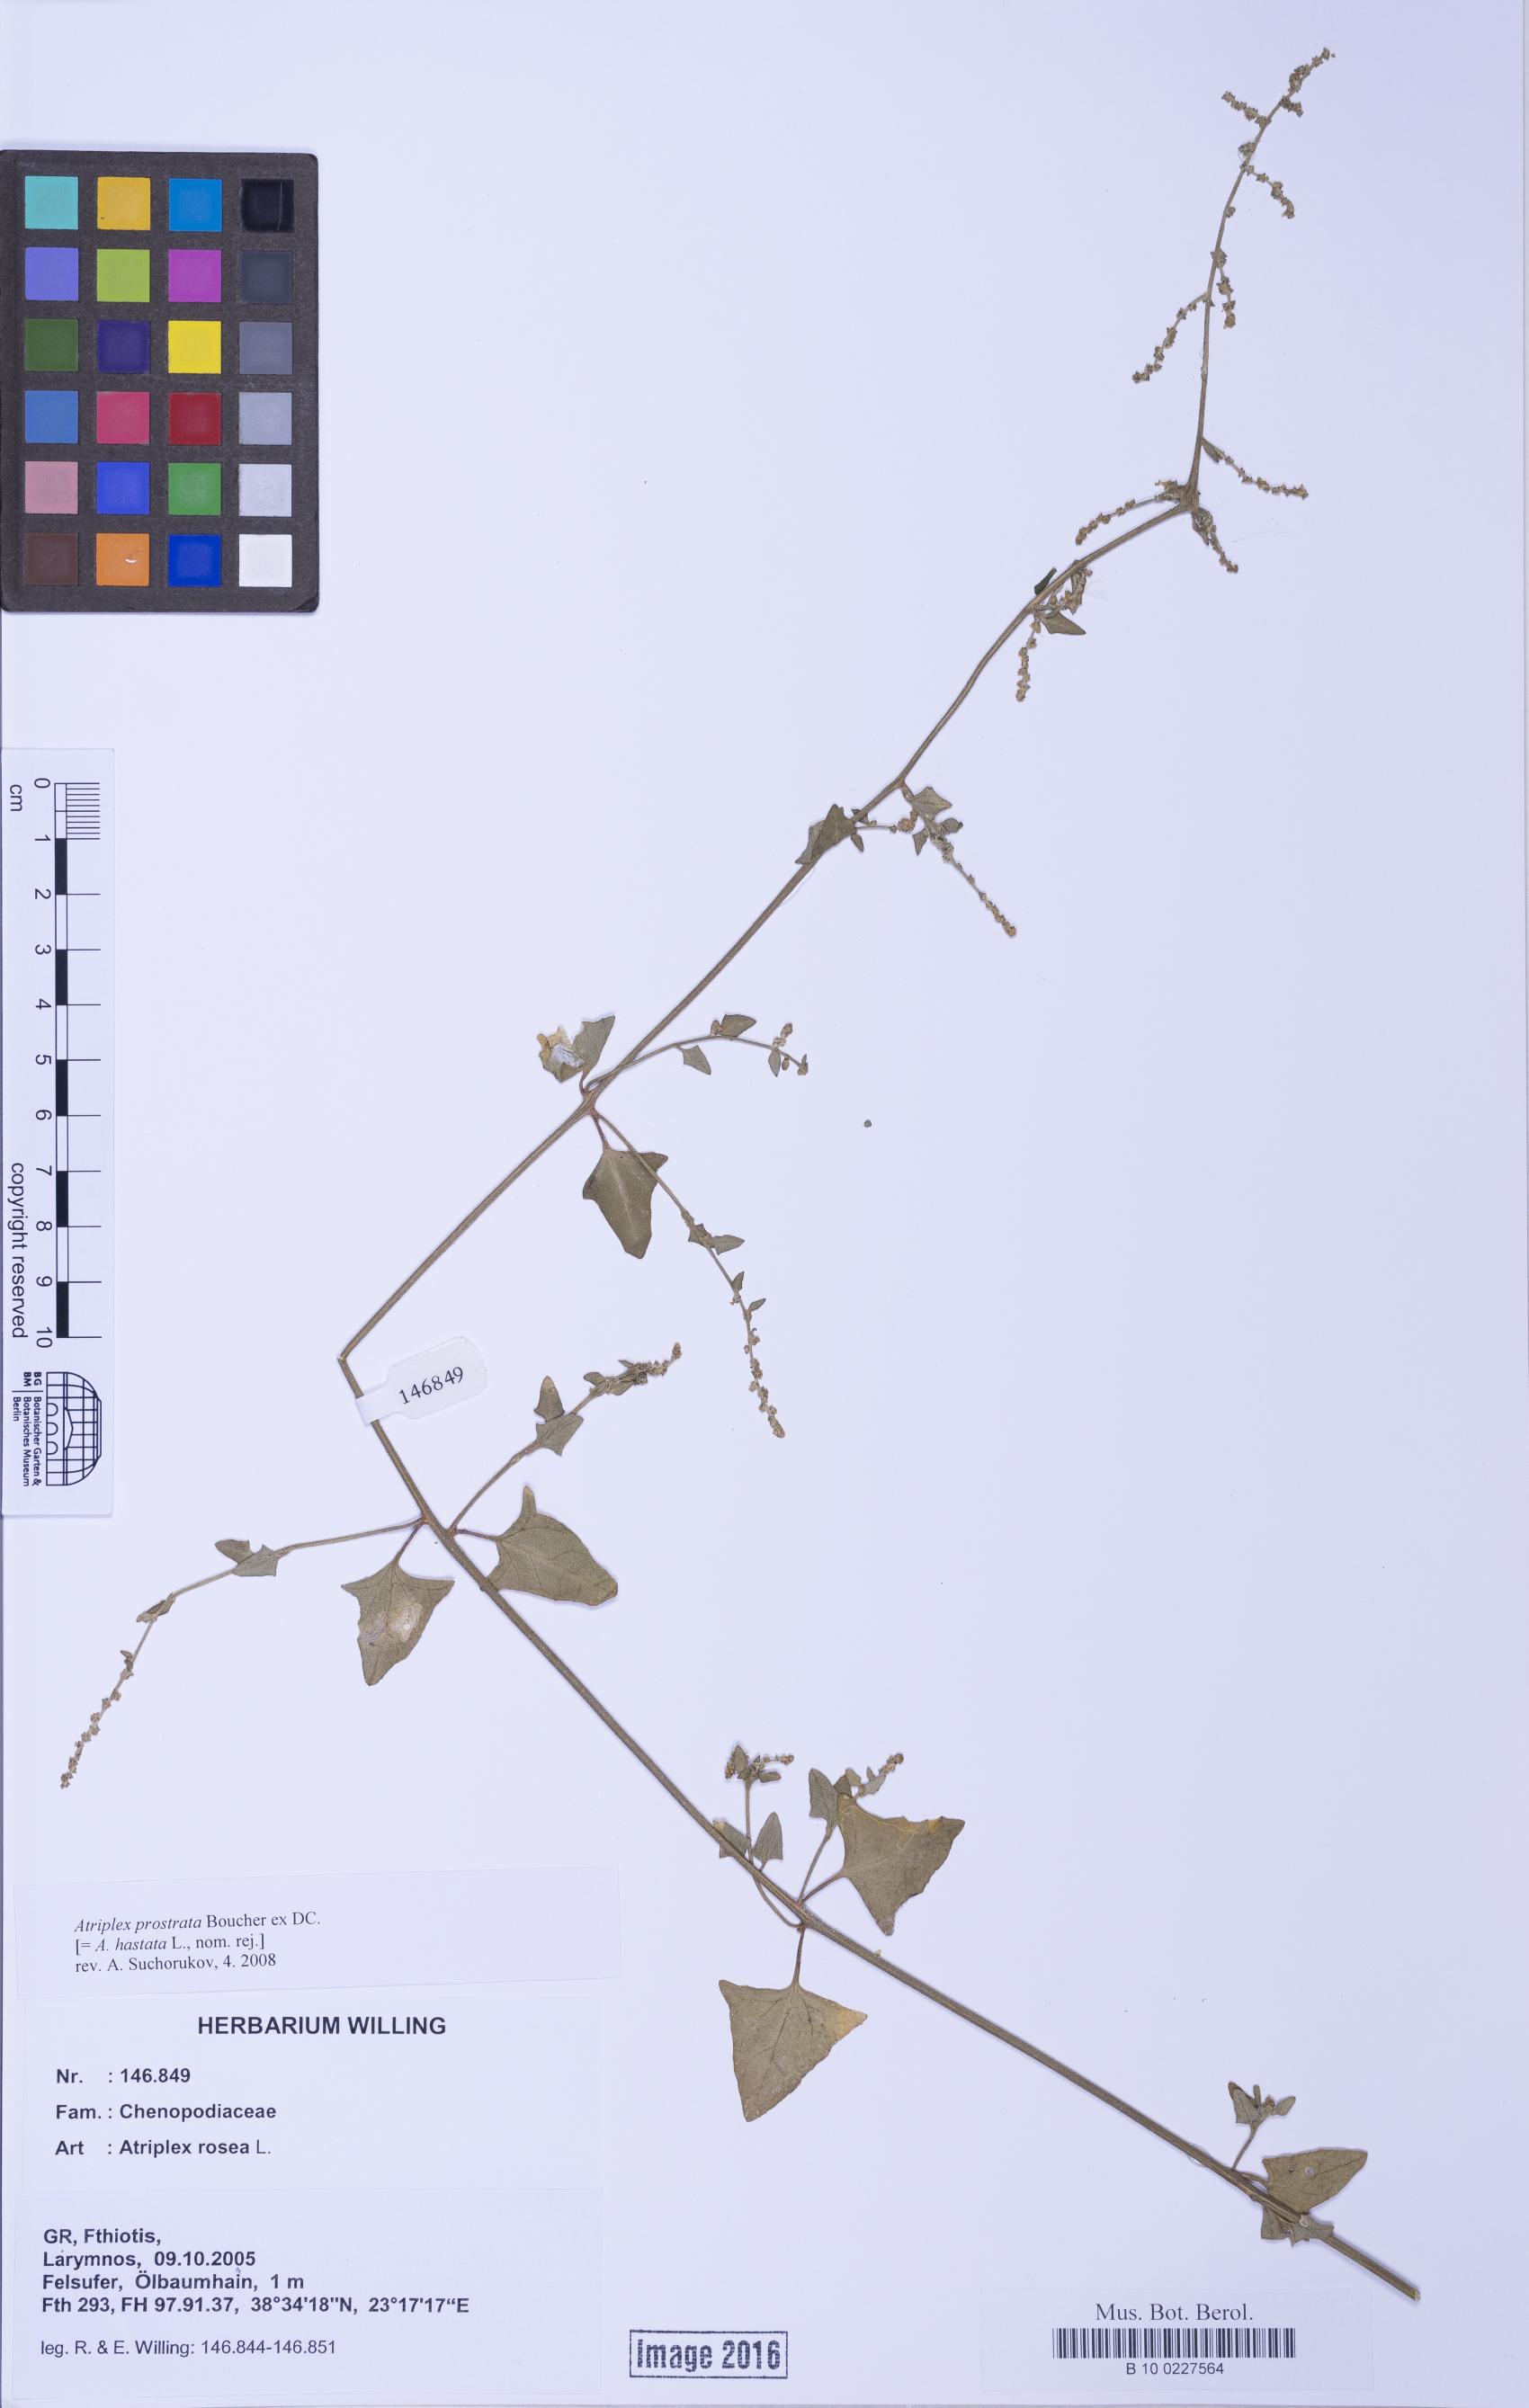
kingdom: Plantae
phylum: Tracheophyta
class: Magnoliopsida
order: Caryophyllales
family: Amaranthaceae
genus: Atriplex
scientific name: Atriplex prostrata
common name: Spear-leaved orache
